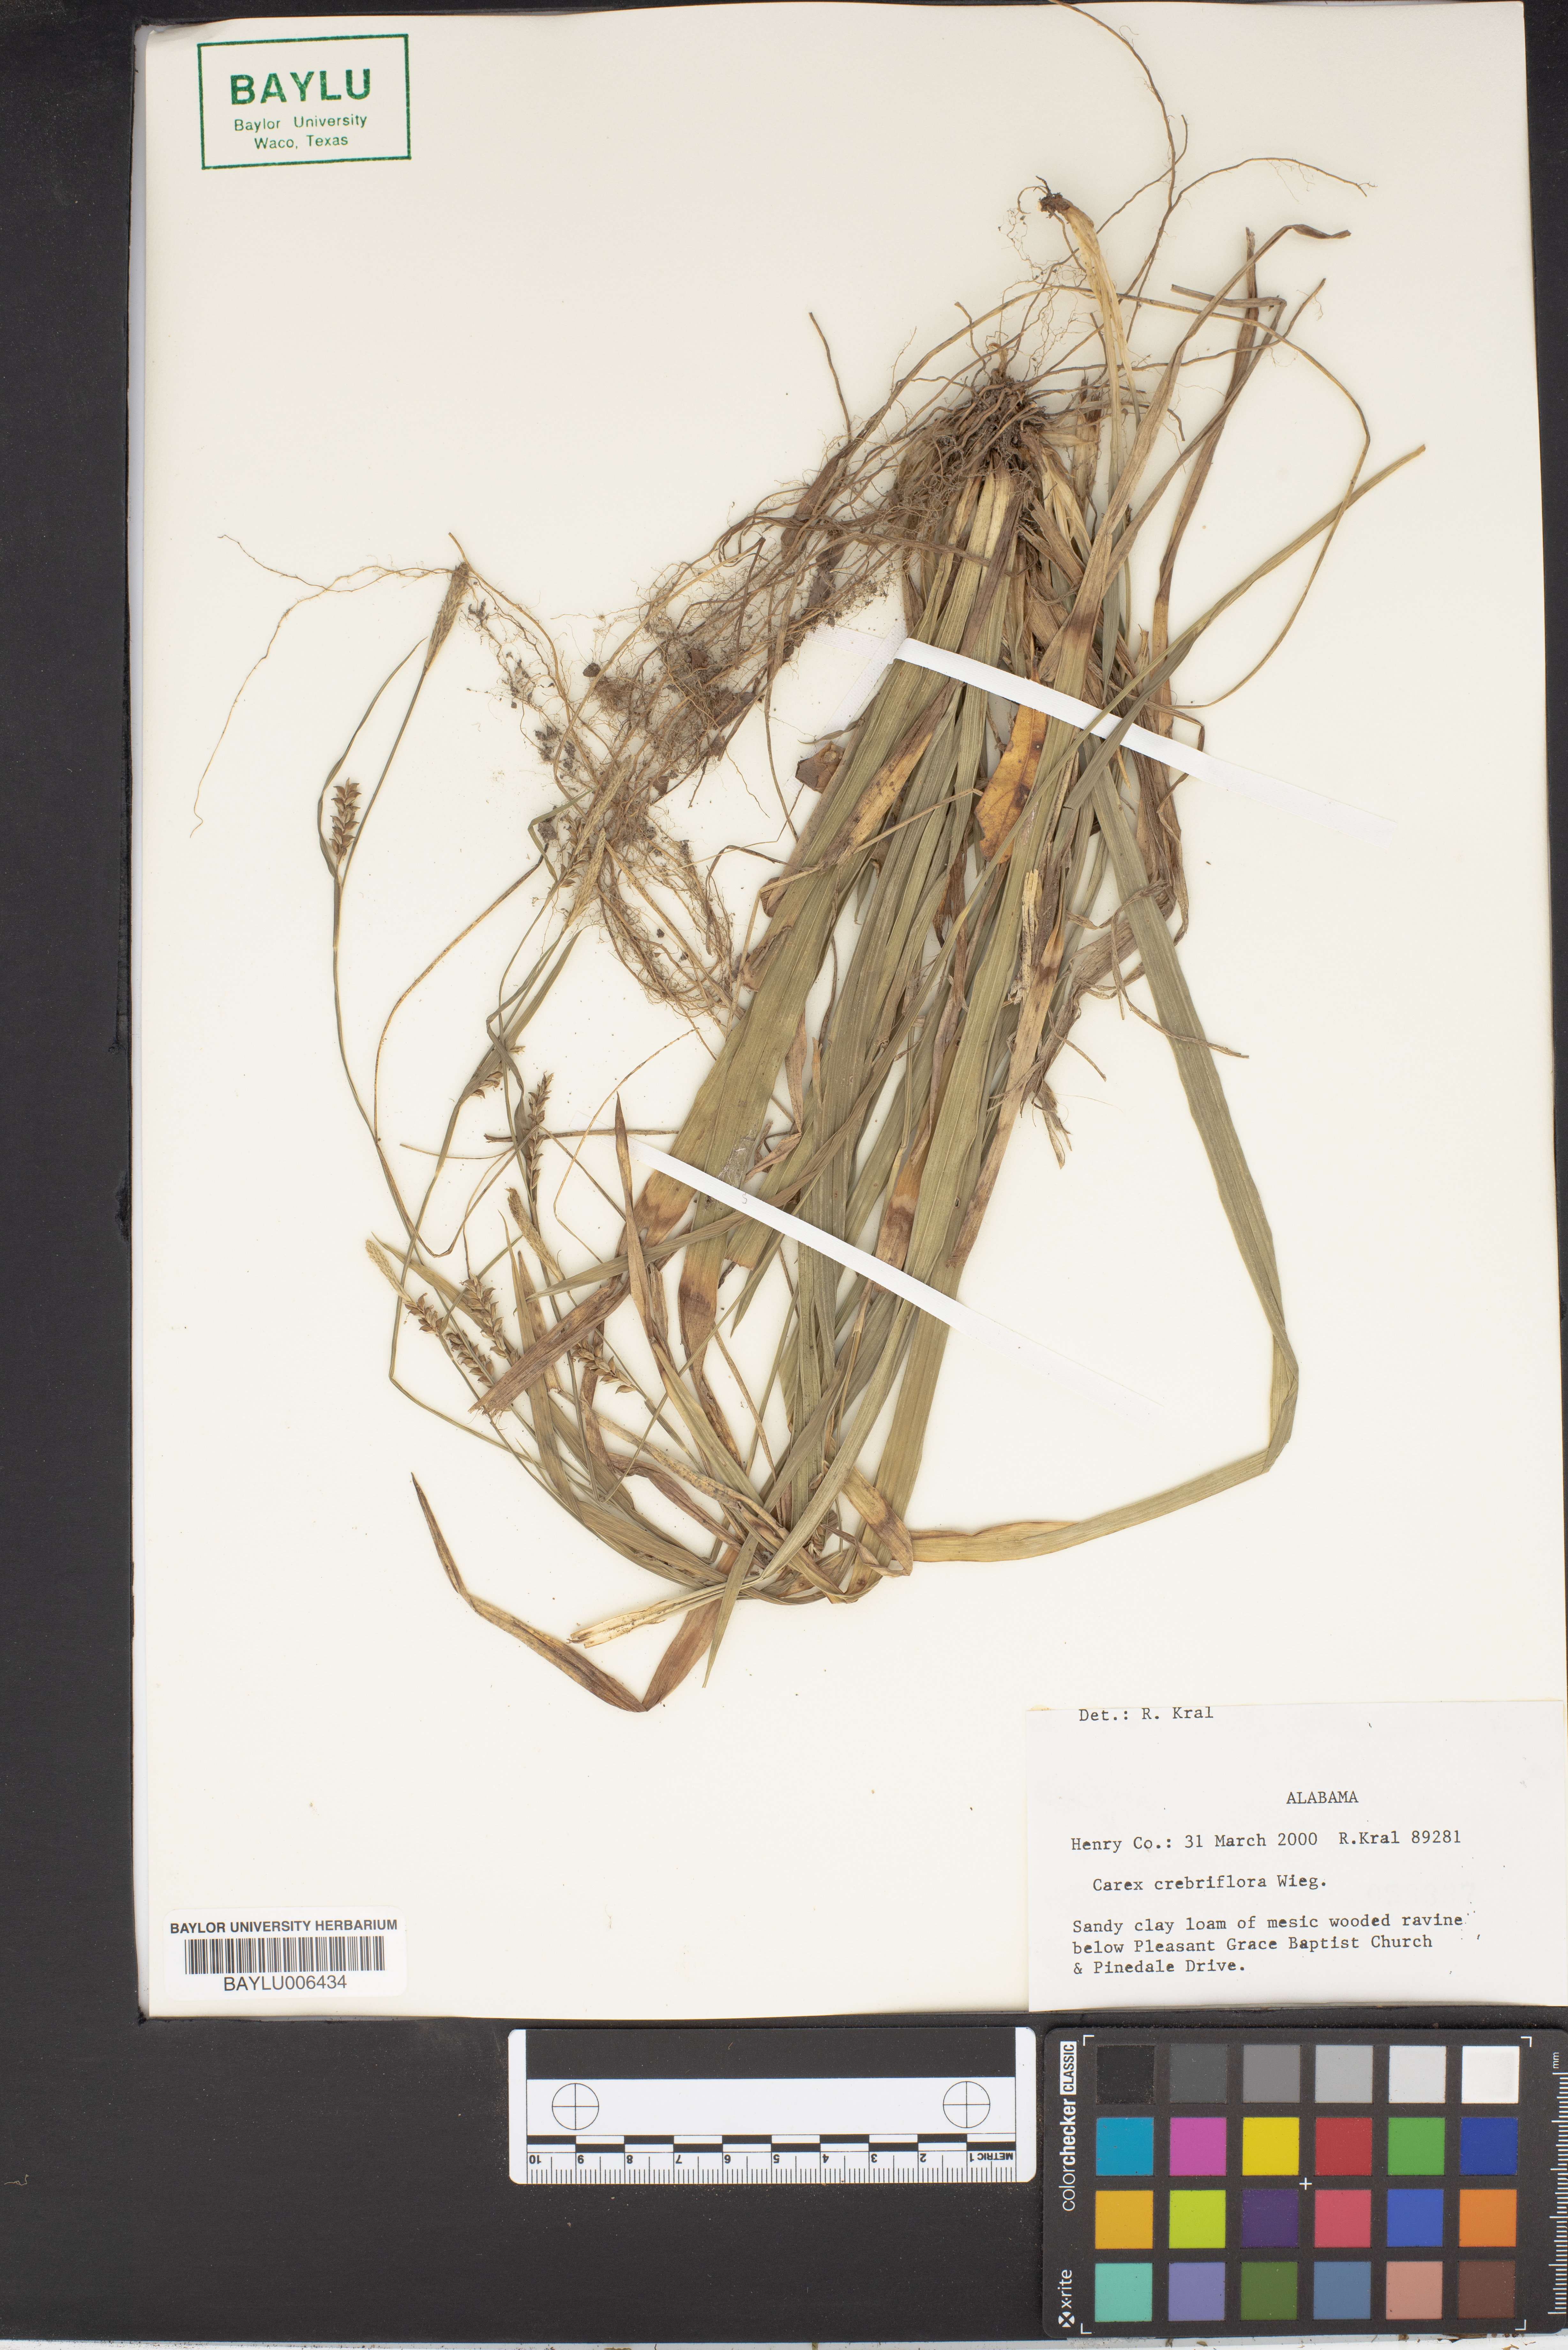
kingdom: Plantae
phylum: Tracheophyta
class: Liliopsida
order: Poales
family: Cyperaceae
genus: Carex
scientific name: Carex crebriflora
